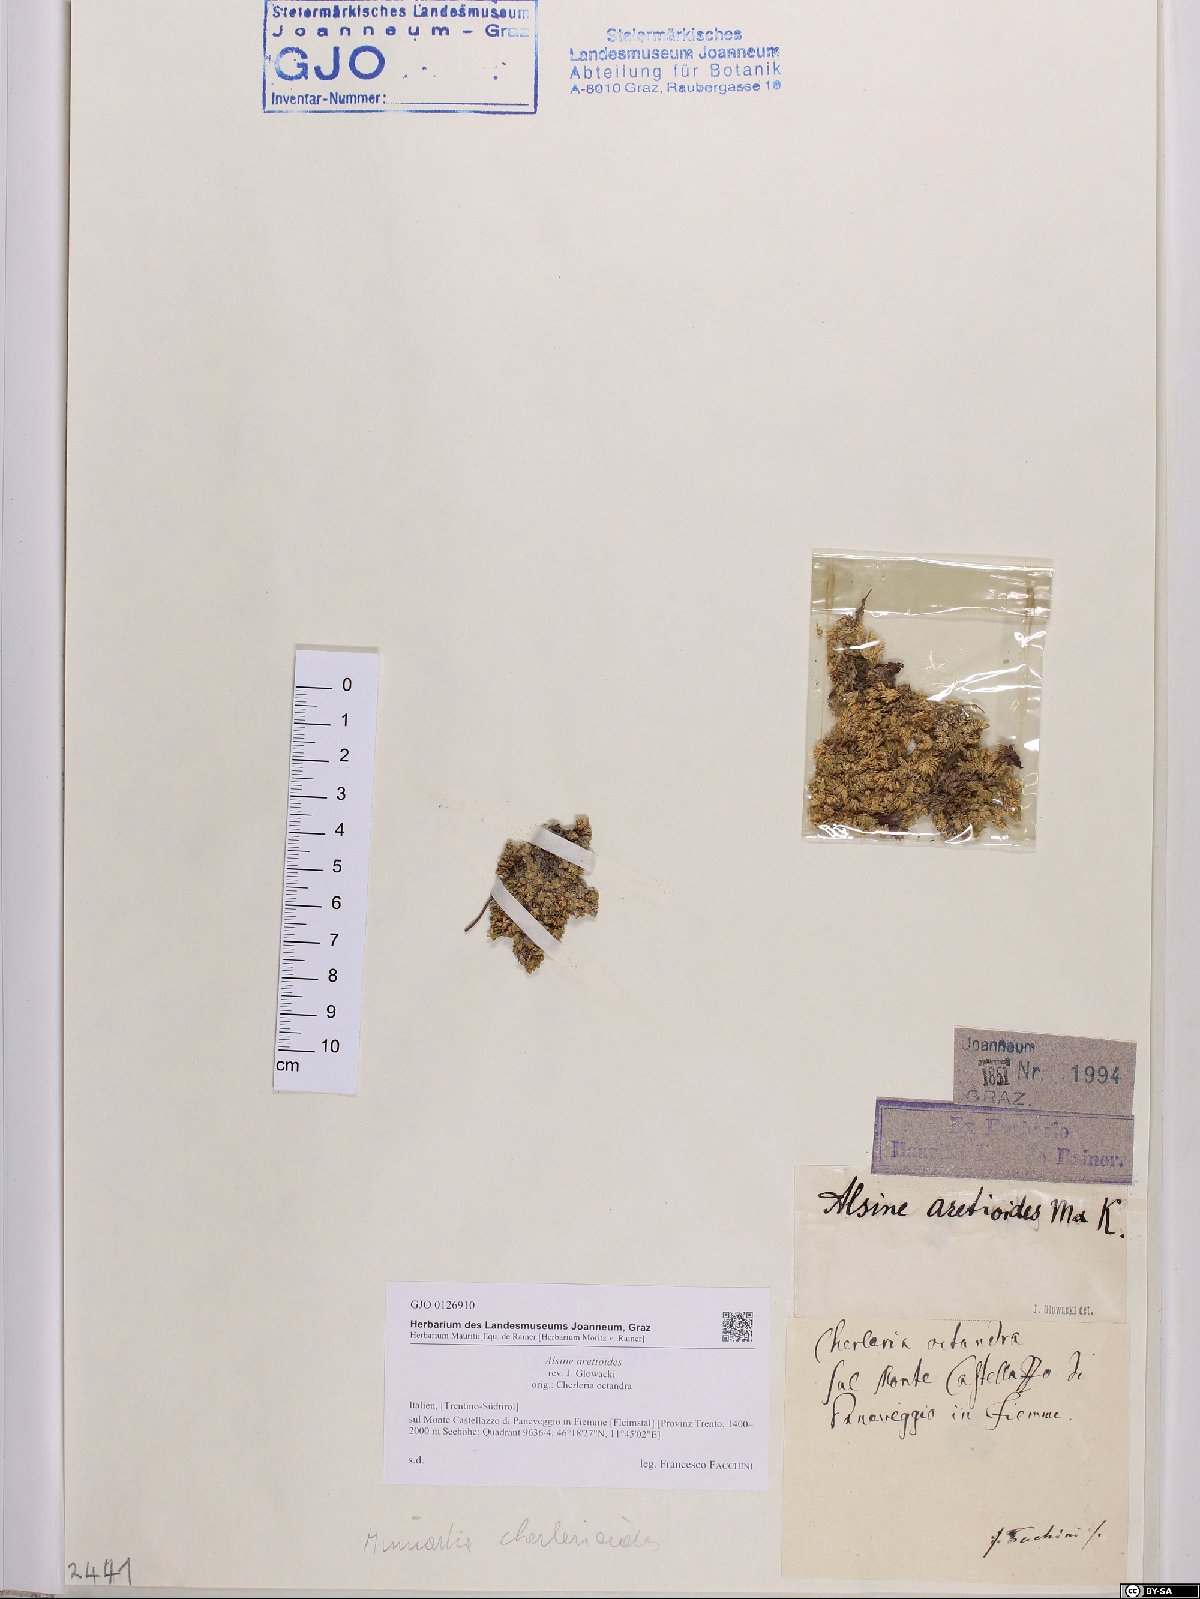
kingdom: Plantae
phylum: Tracheophyta
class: Magnoliopsida
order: Caryophyllales
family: Caryophyllaceae
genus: Facchinia
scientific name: Facchinia cherlerioides
